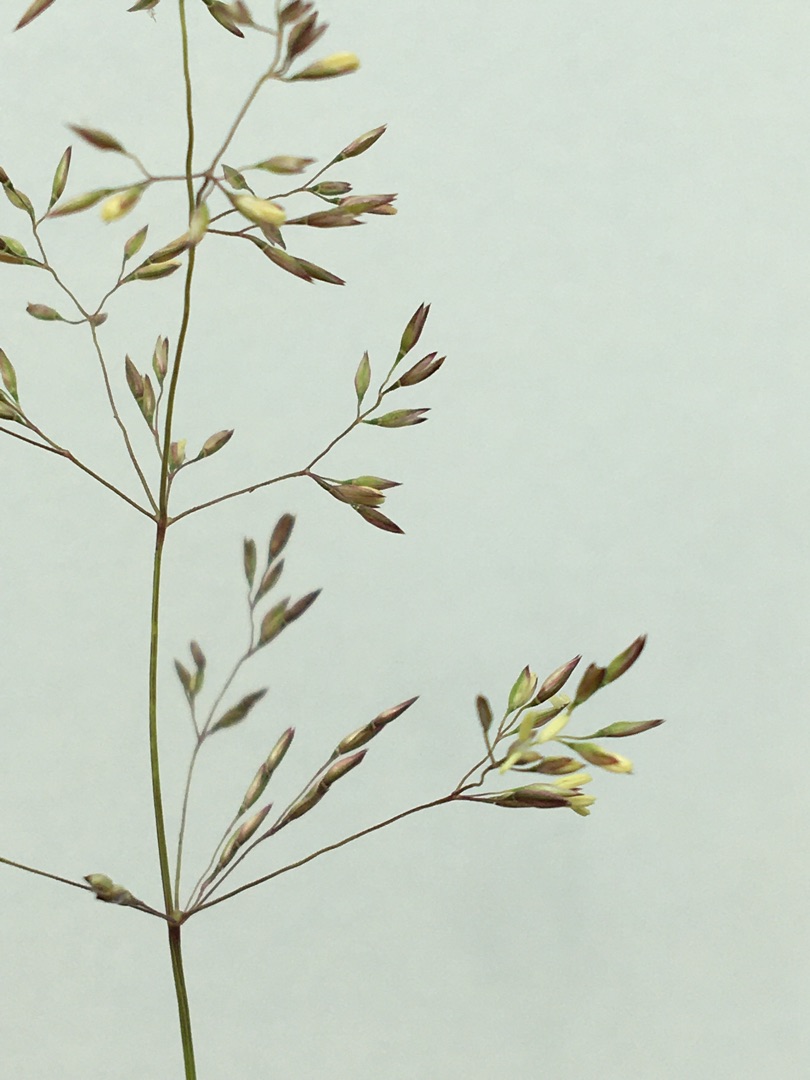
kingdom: Plantae
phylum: Tracheophyta
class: Liliopsida
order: Poales
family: Poaceae
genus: Agrostis
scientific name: Agrostis capillaris
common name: Almindelig hvene
